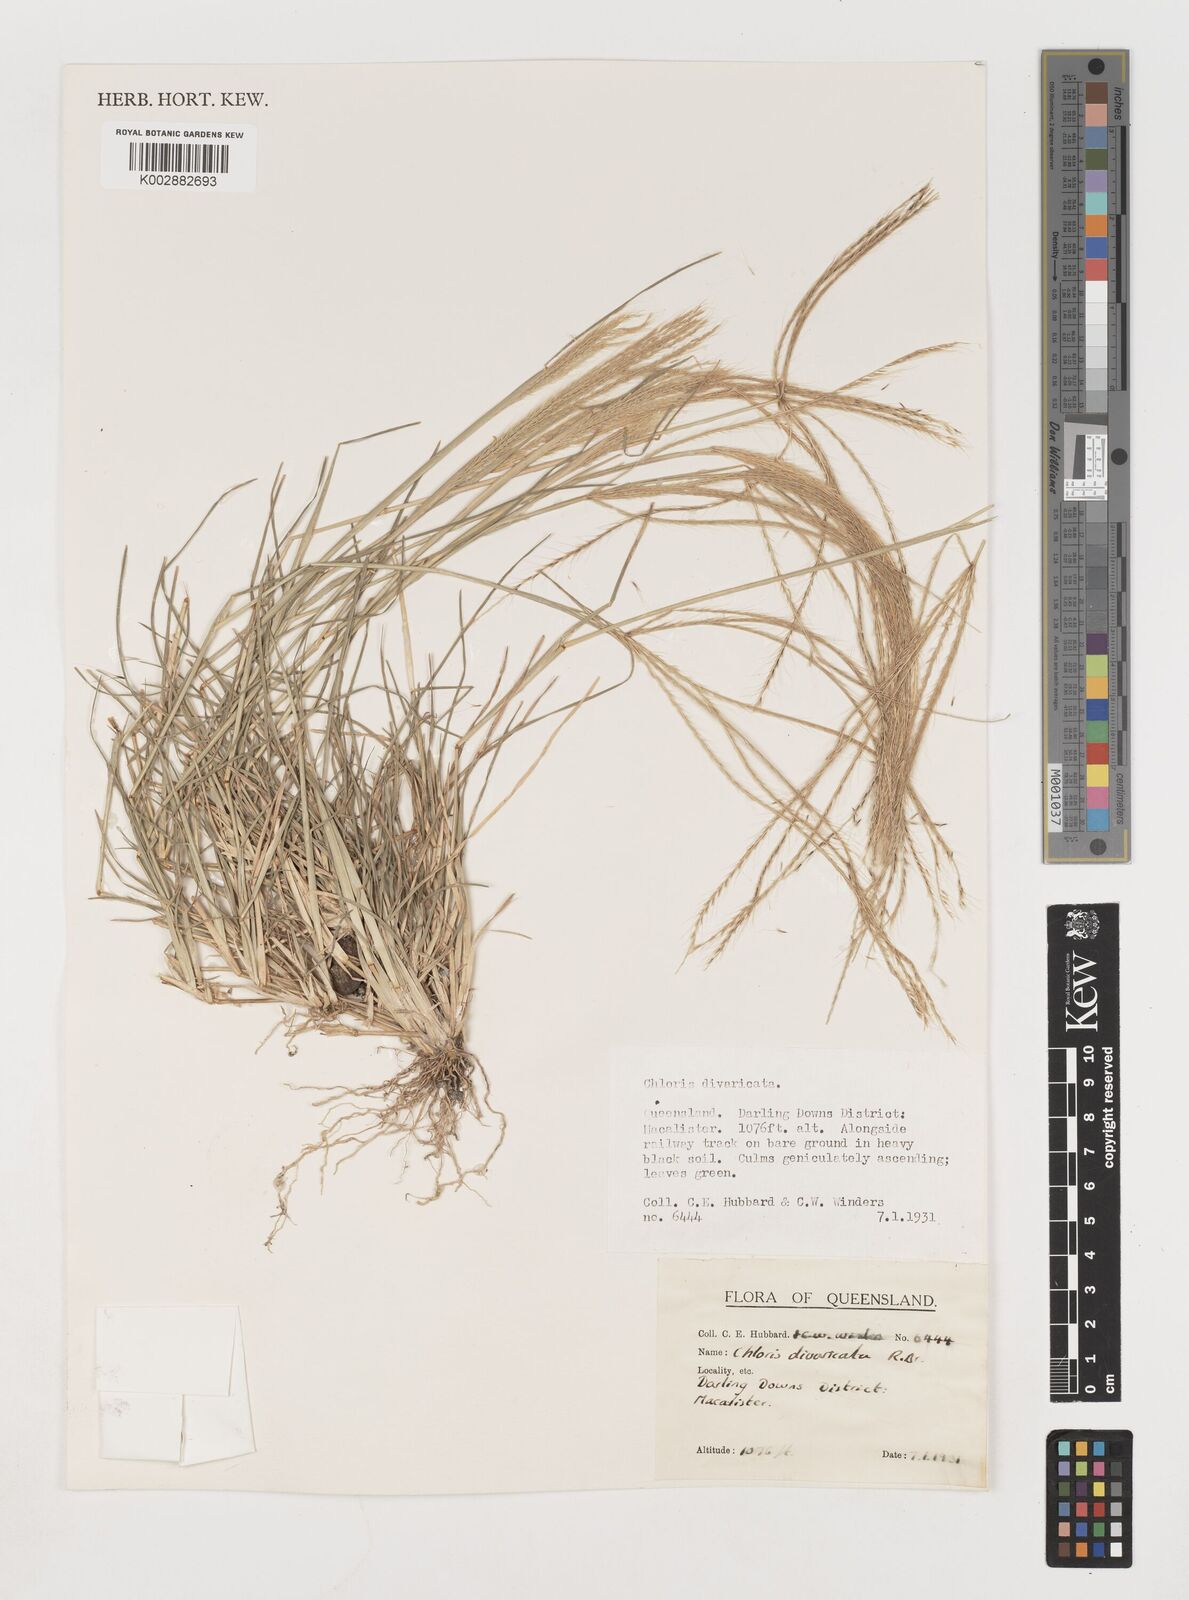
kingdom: Plantae
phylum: Tracheophyta
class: Liliopsida
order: Poales
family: Poaceae
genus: Chloris
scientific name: Chloris divaricata
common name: Spreading windmill grass
